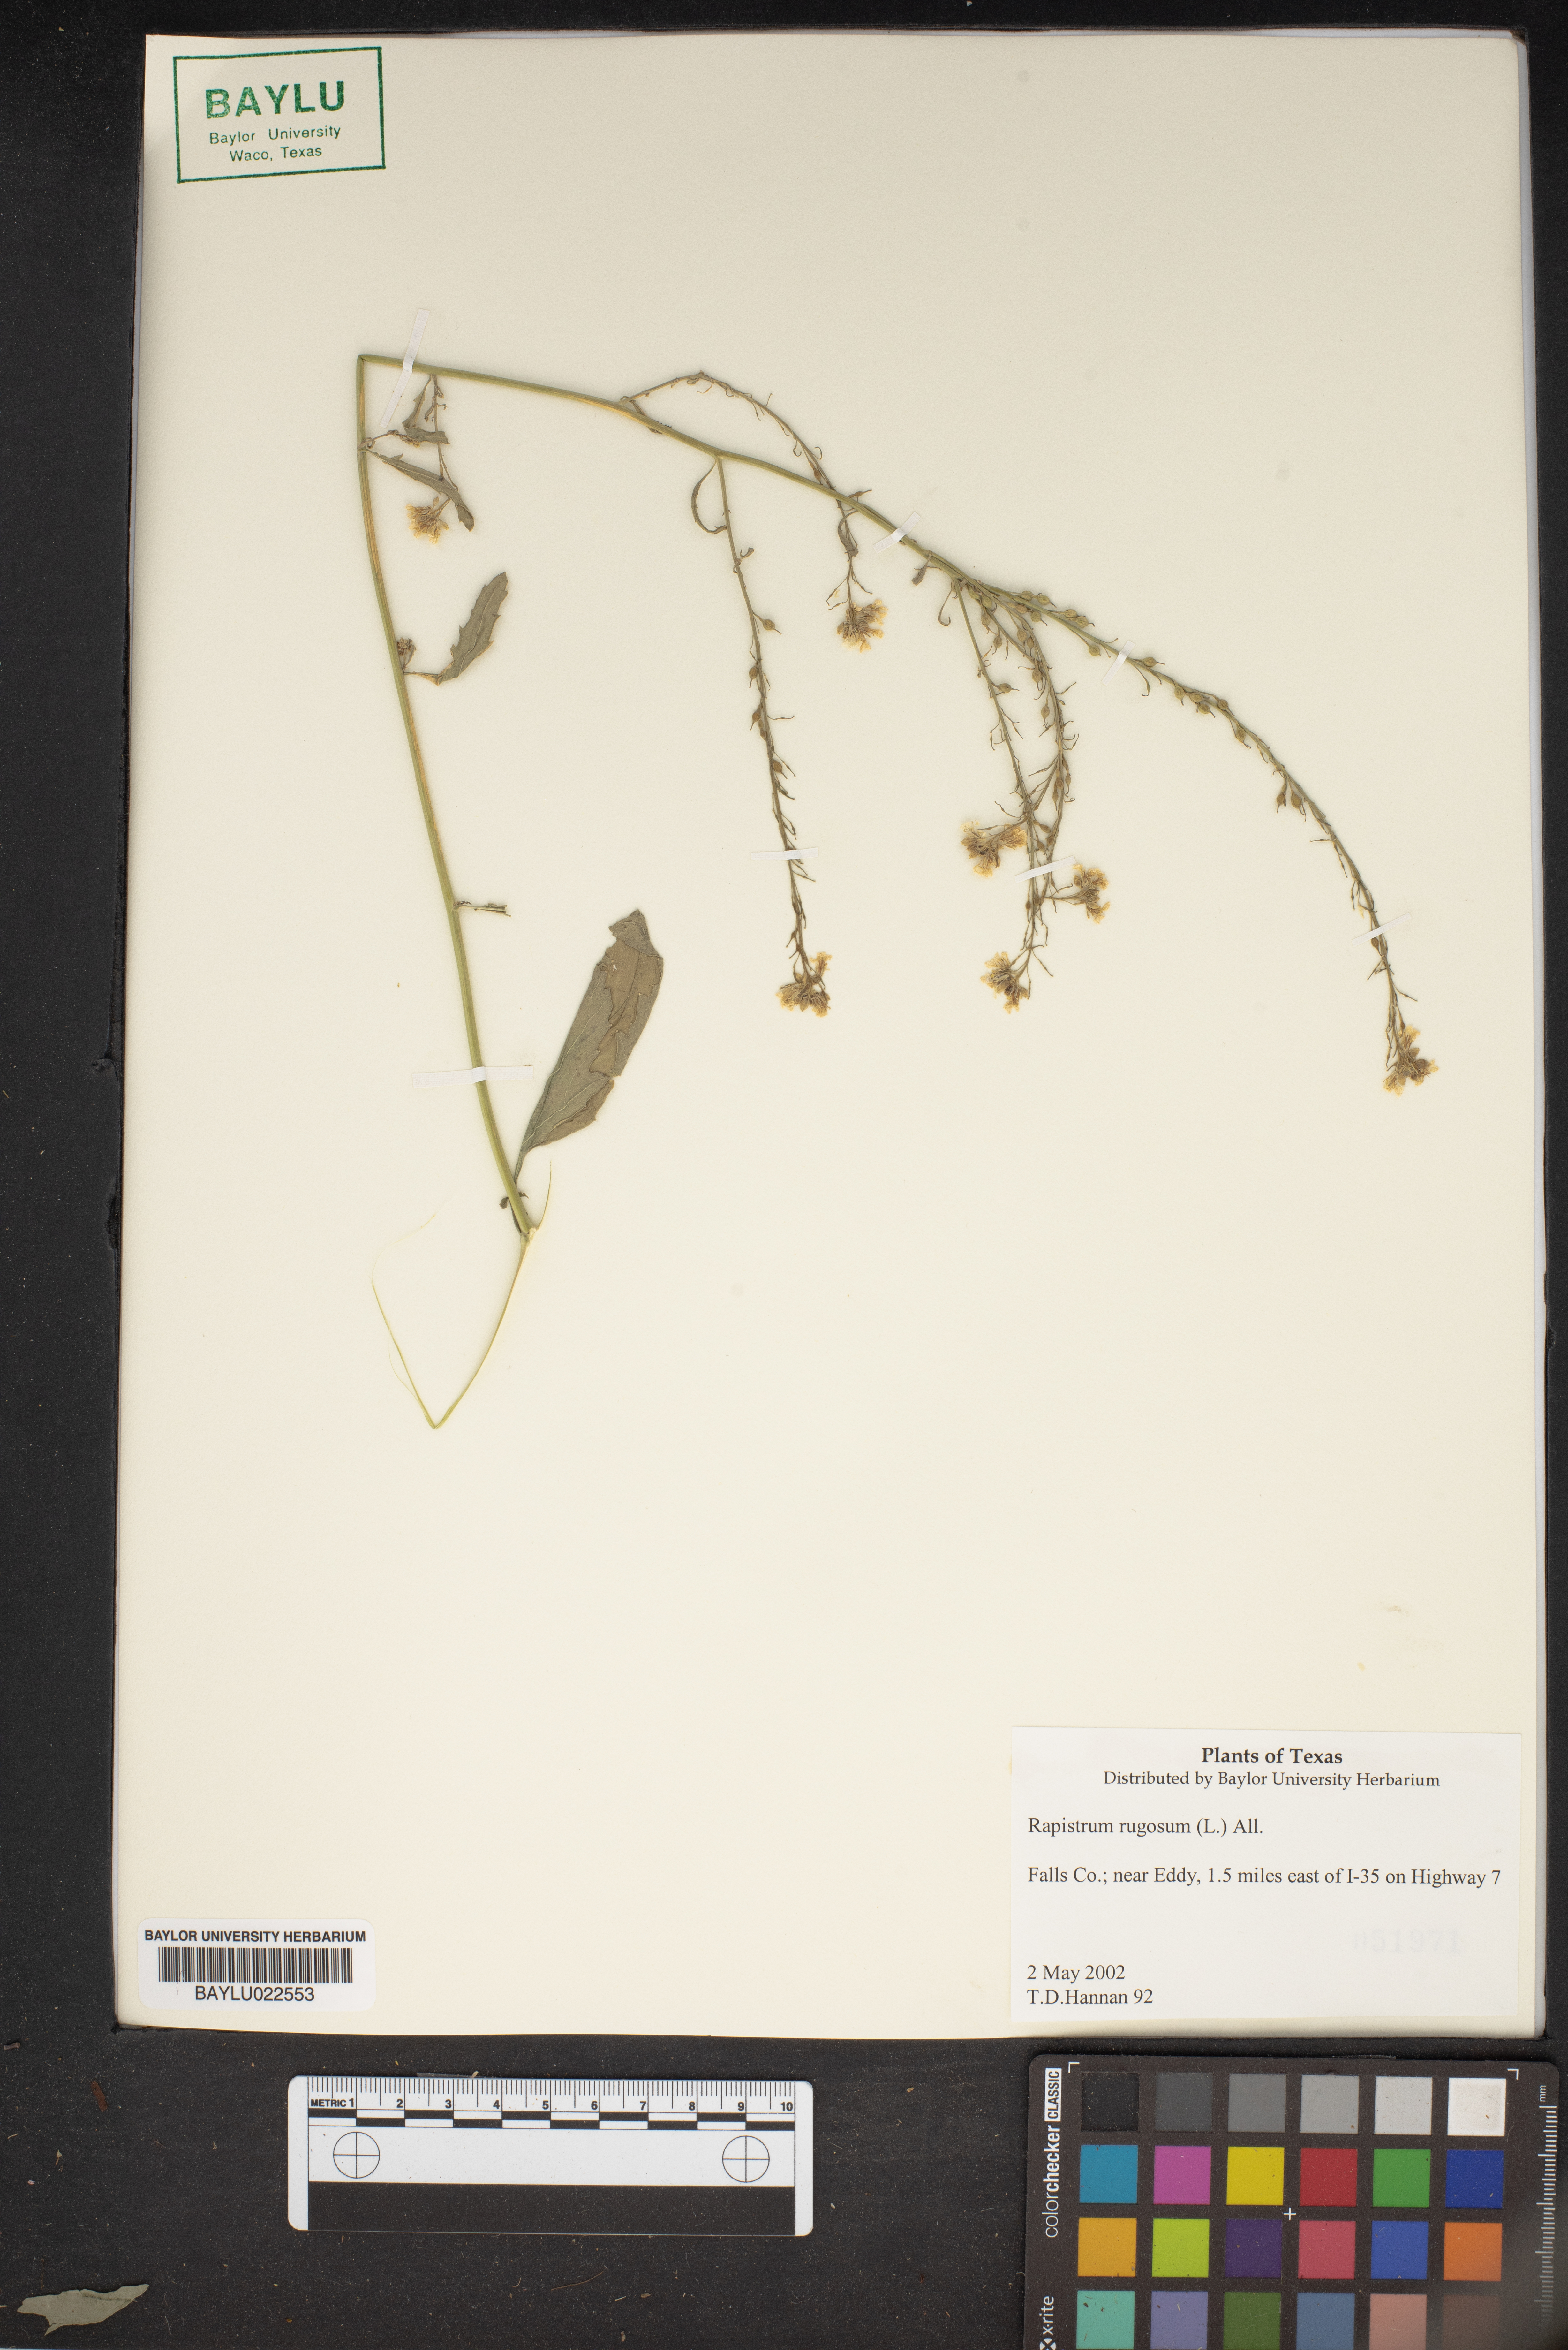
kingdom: Plantae
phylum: Tracheophyta
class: Magnoliopsida
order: Brassicales
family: Brassicaceae
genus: Rapistrum
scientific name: Rapistrum rugosum
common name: Annual bastardcabbage
